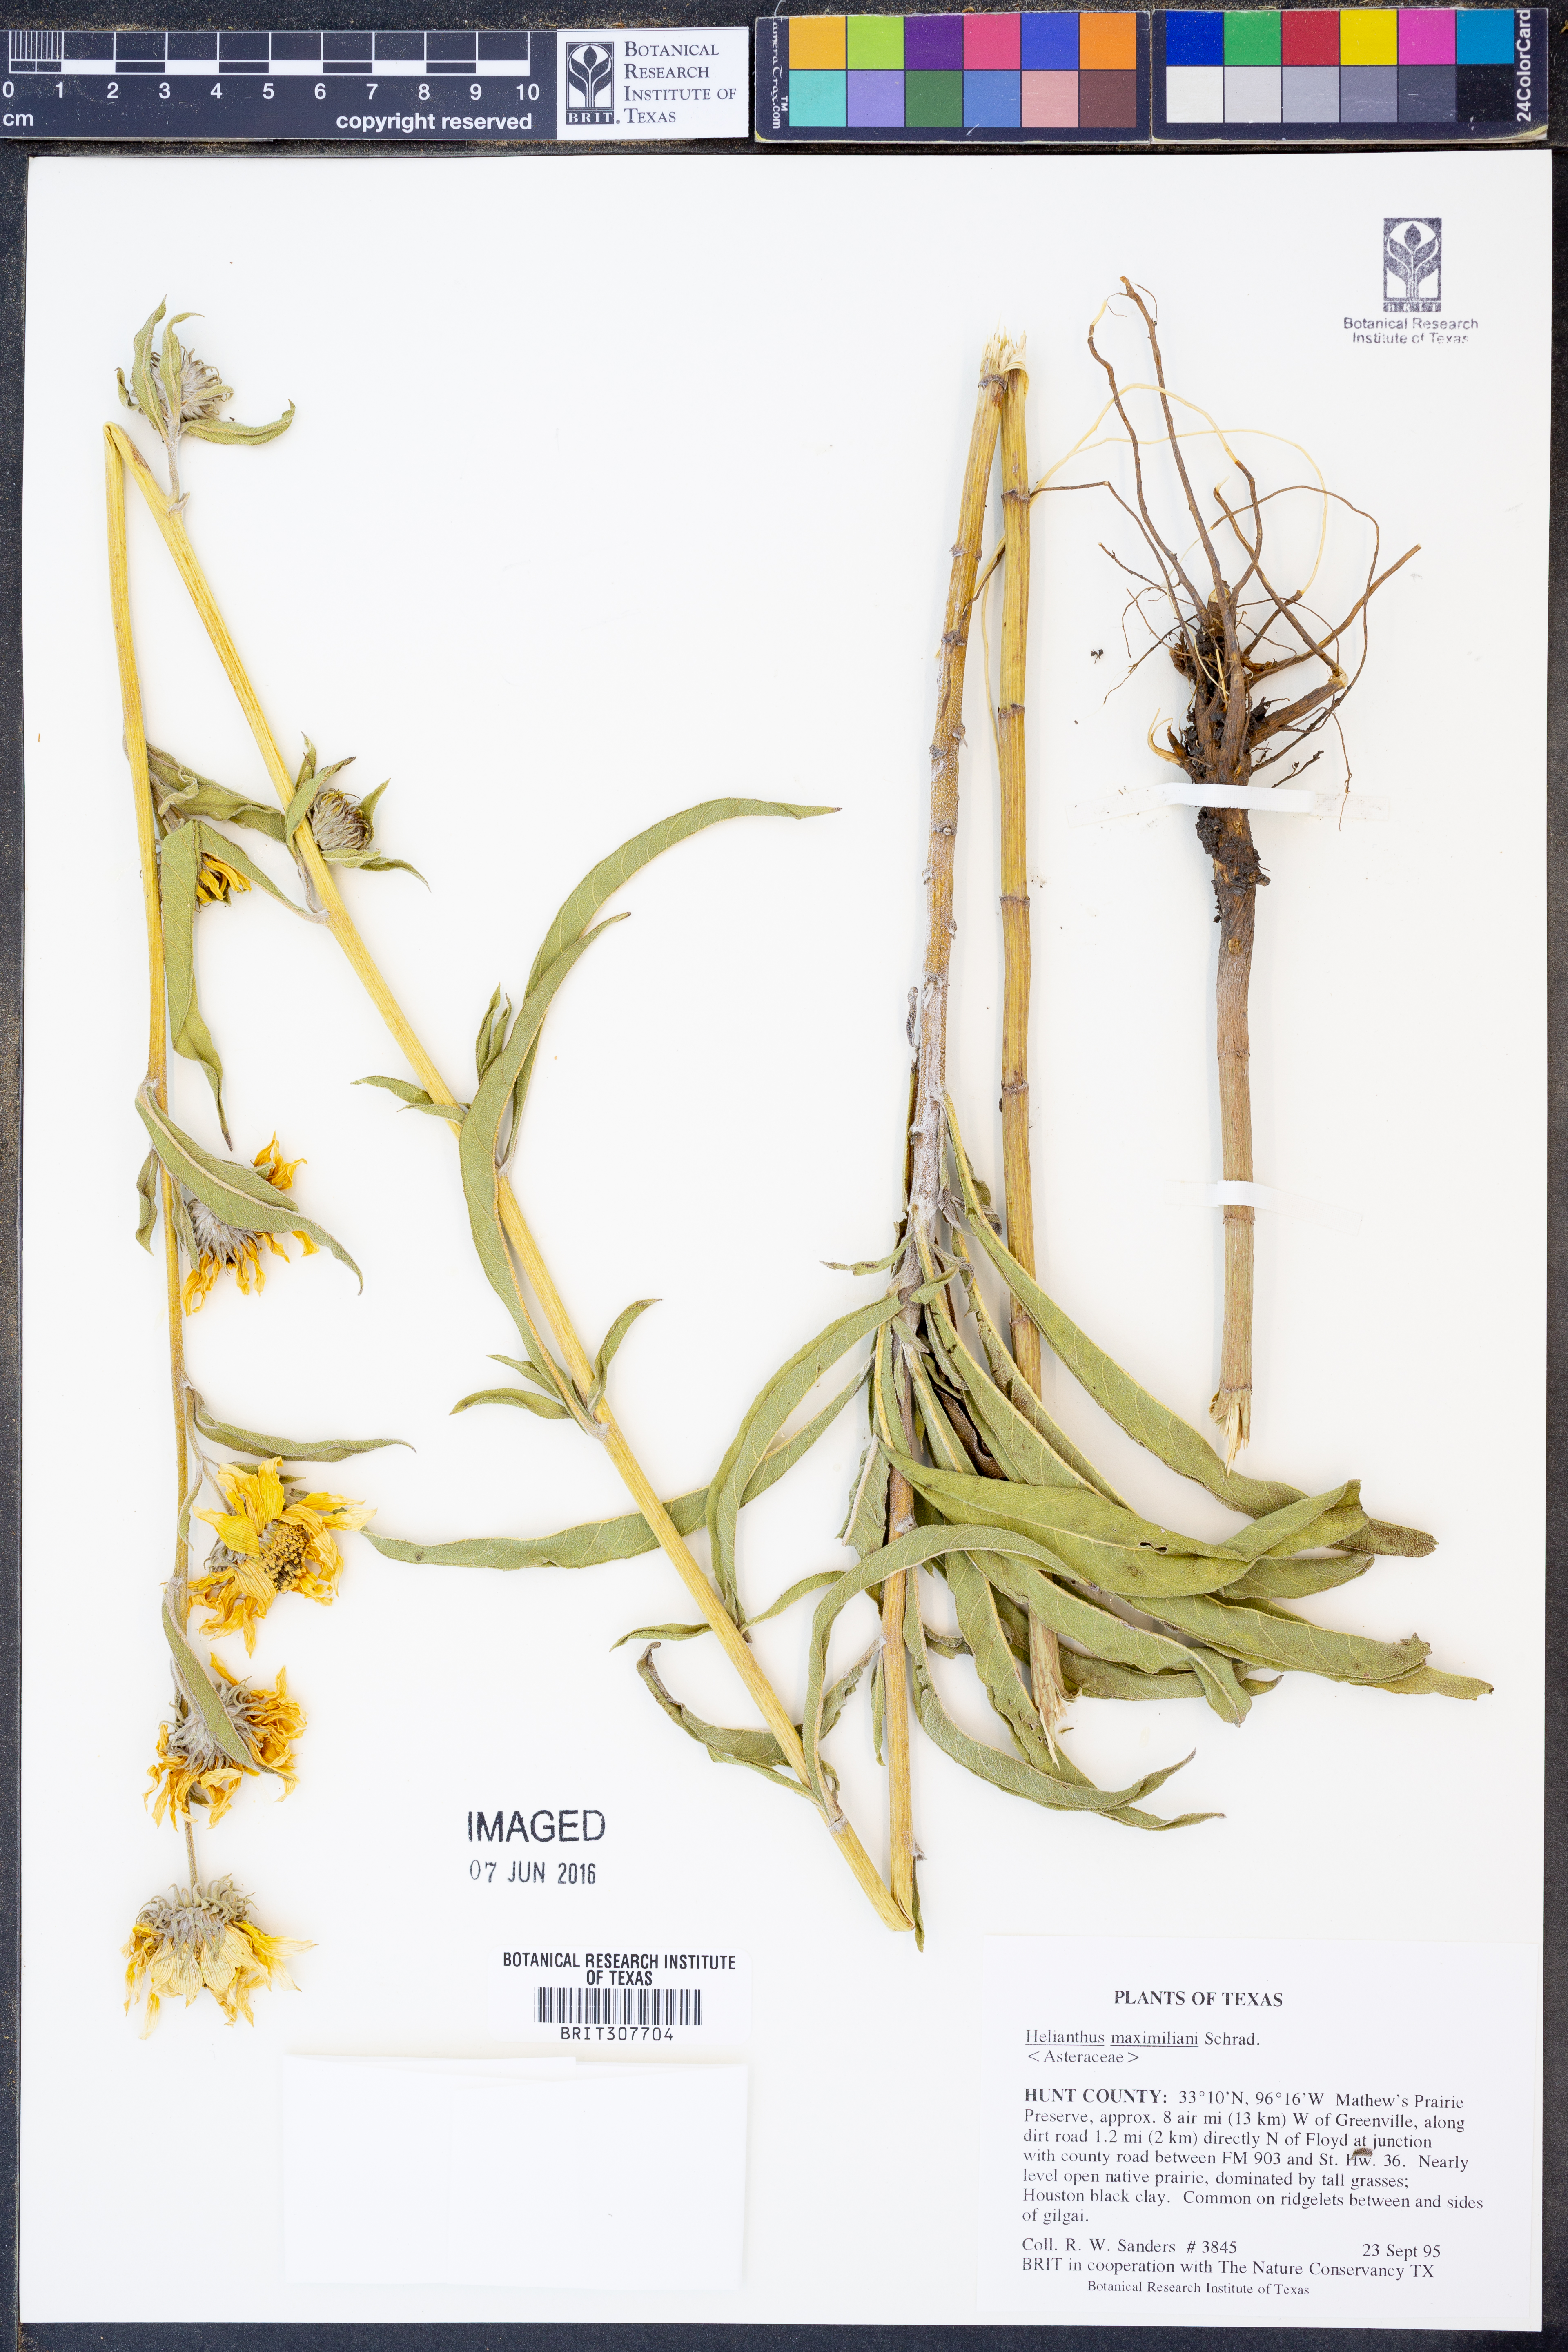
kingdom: Plantae
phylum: Tracheophyta
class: Magnoliopsida
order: Asterales
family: Asteraceae
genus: Helianthus
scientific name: Helianthus maximiliani
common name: Maximilian's sunflower
